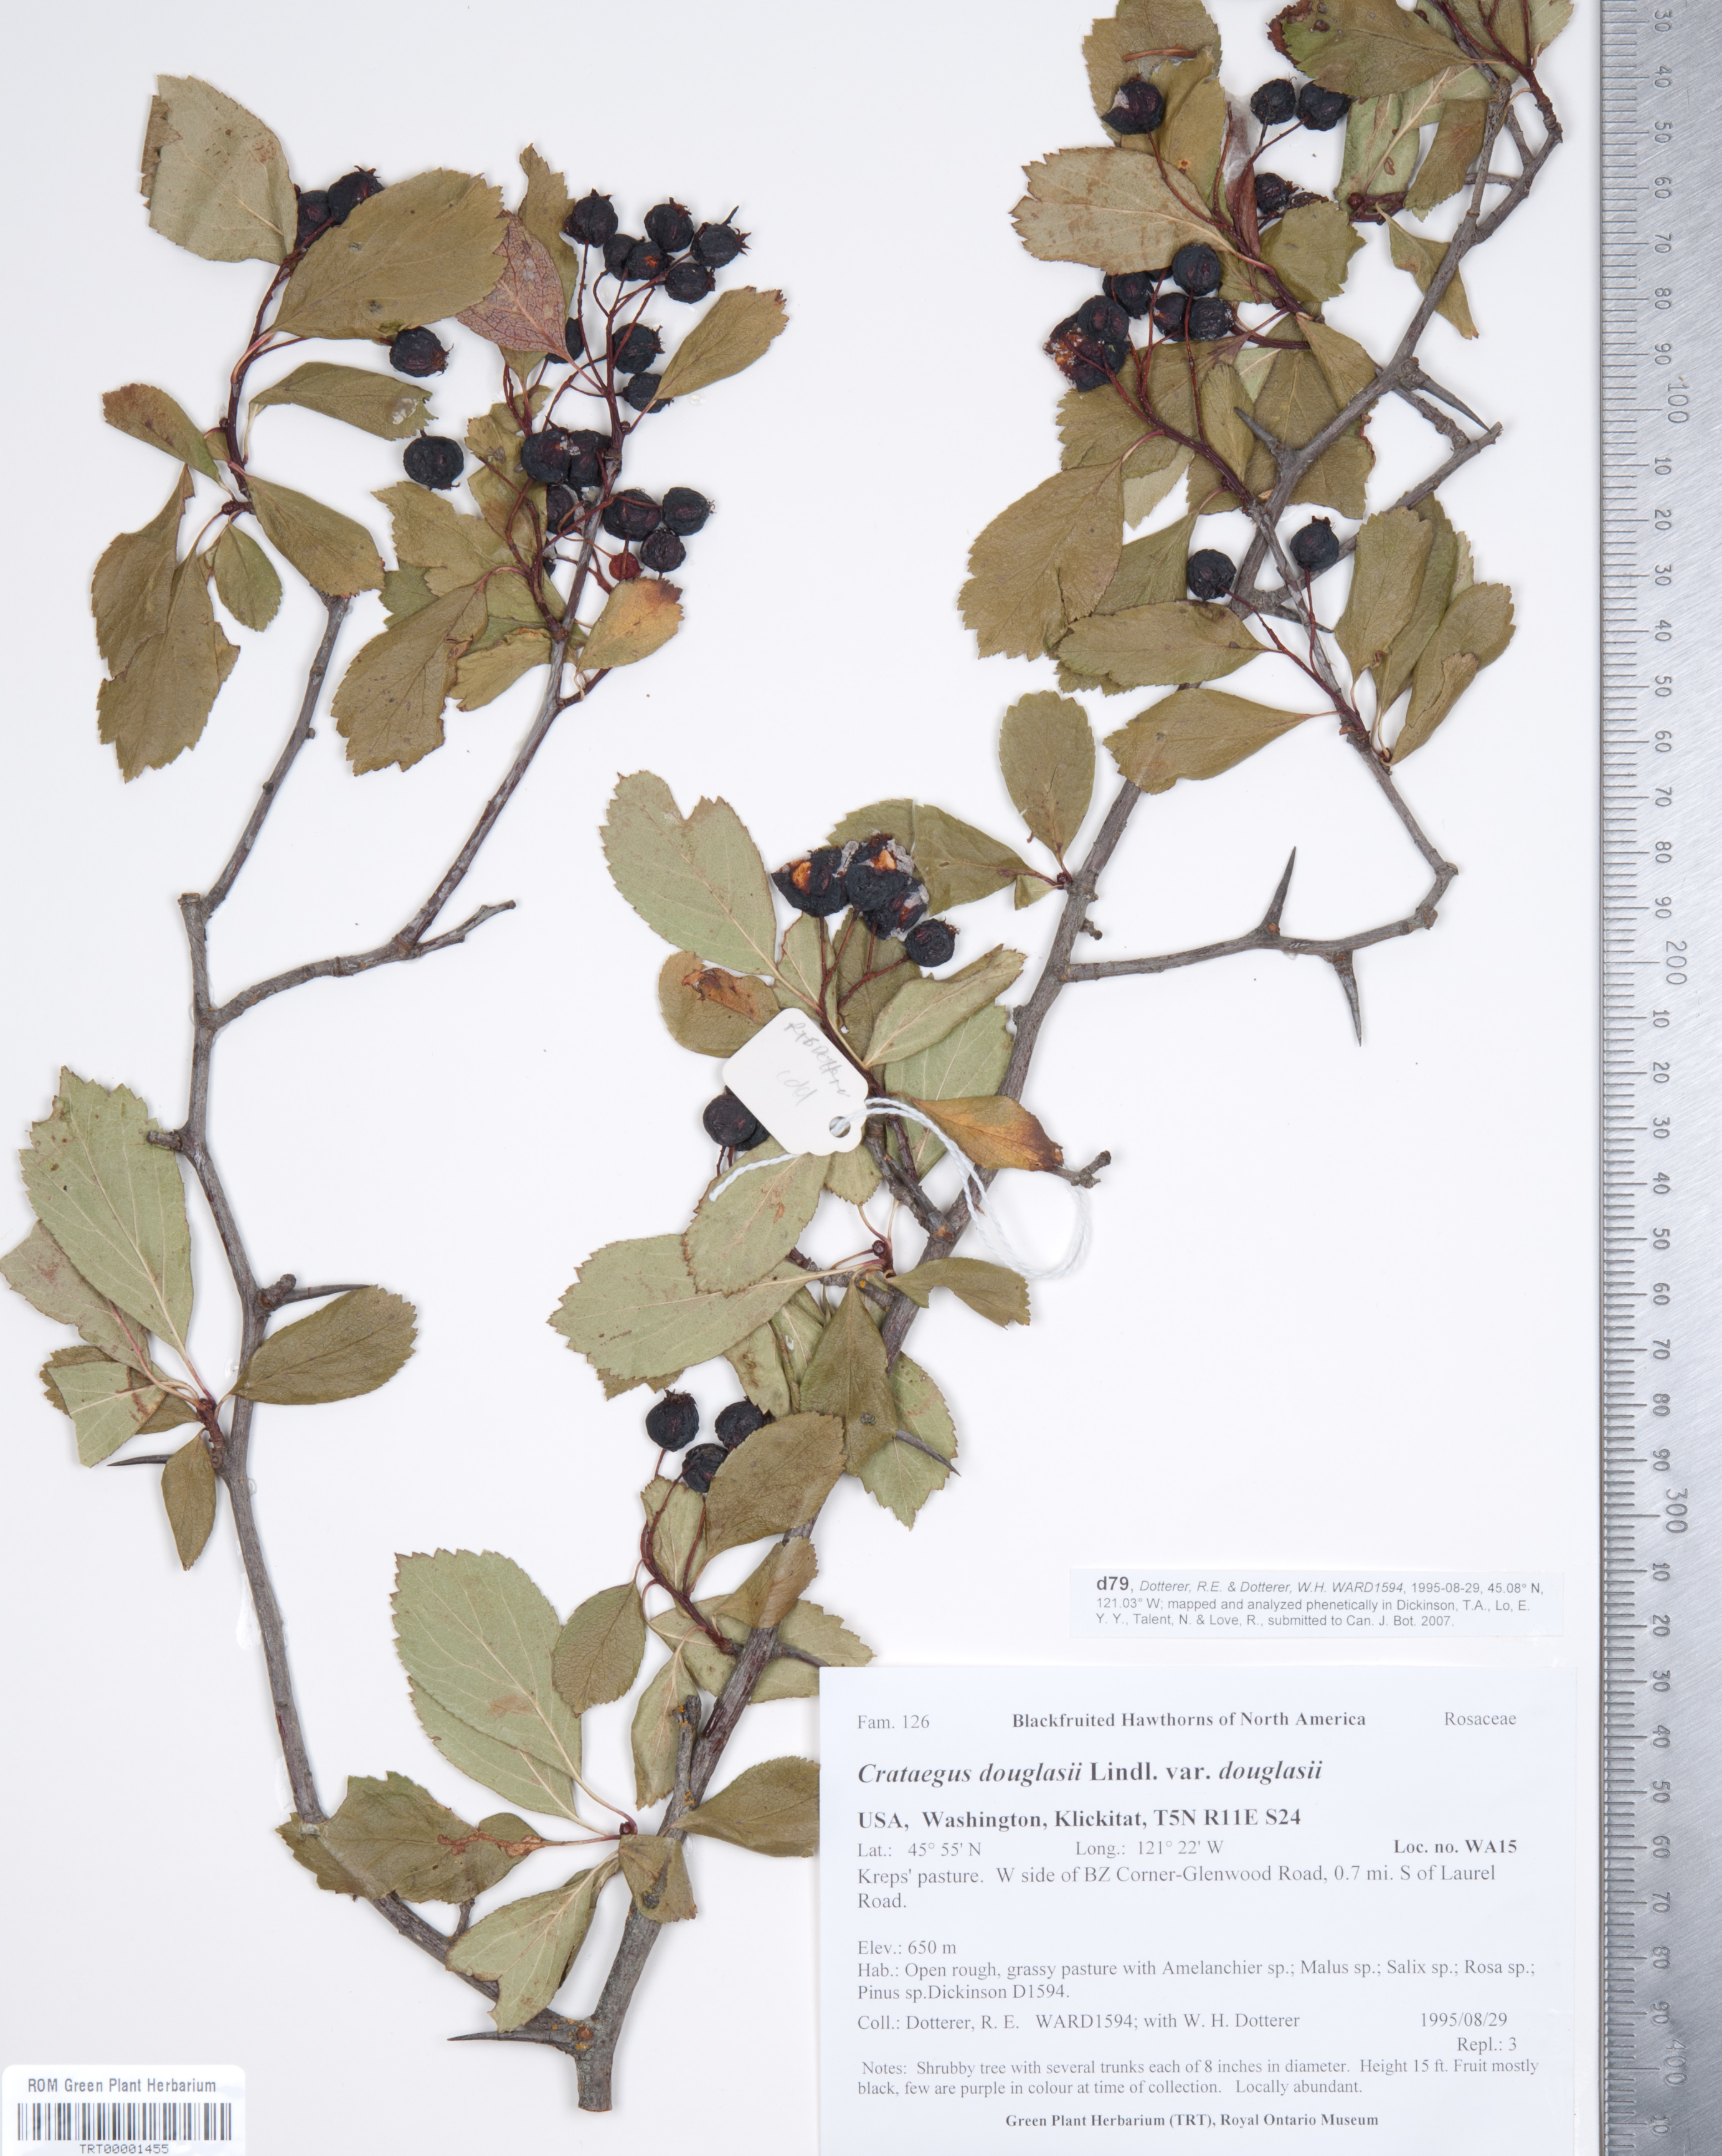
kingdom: Plantae
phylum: Tracheophyta
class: Magnoliopsida
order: Rosales
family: Rosaceae
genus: Crataegus
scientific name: Crataegus douglasii
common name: Black hawthorn
